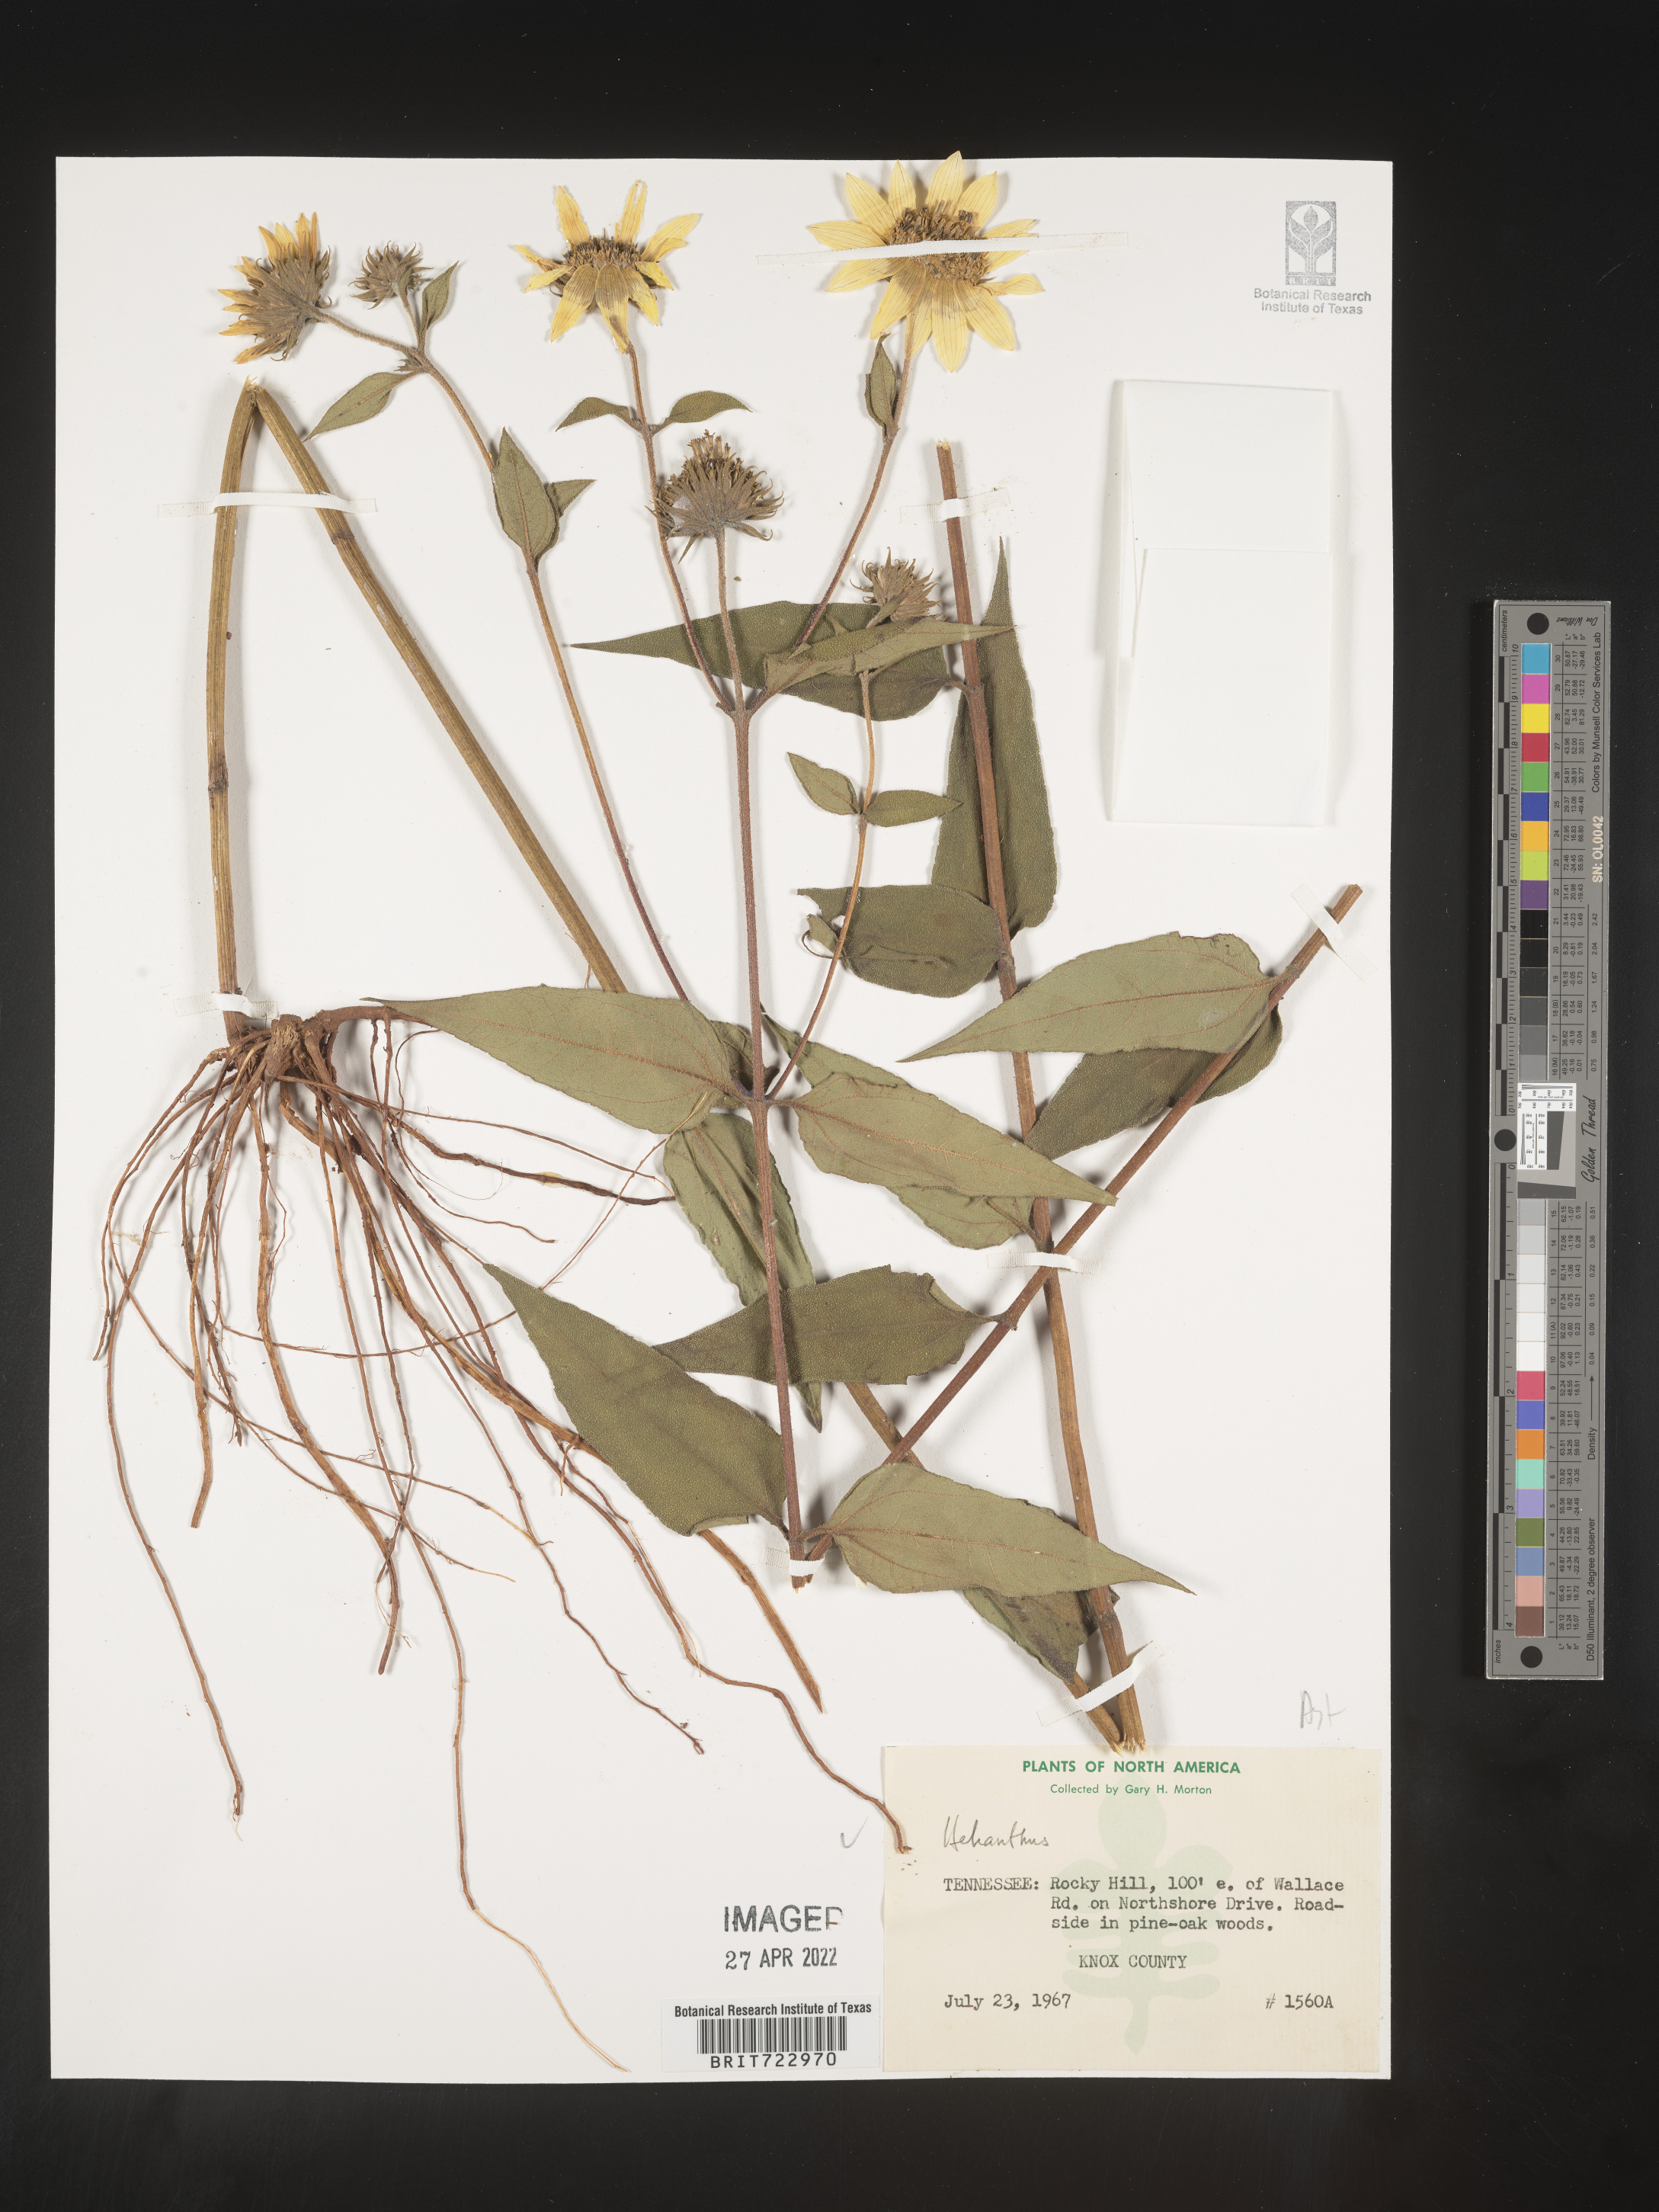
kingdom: Plantae
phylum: Tracheophyta
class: Magnoliopsida
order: Asterales
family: Asteraceae
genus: Helianthus
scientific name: Helianthus
